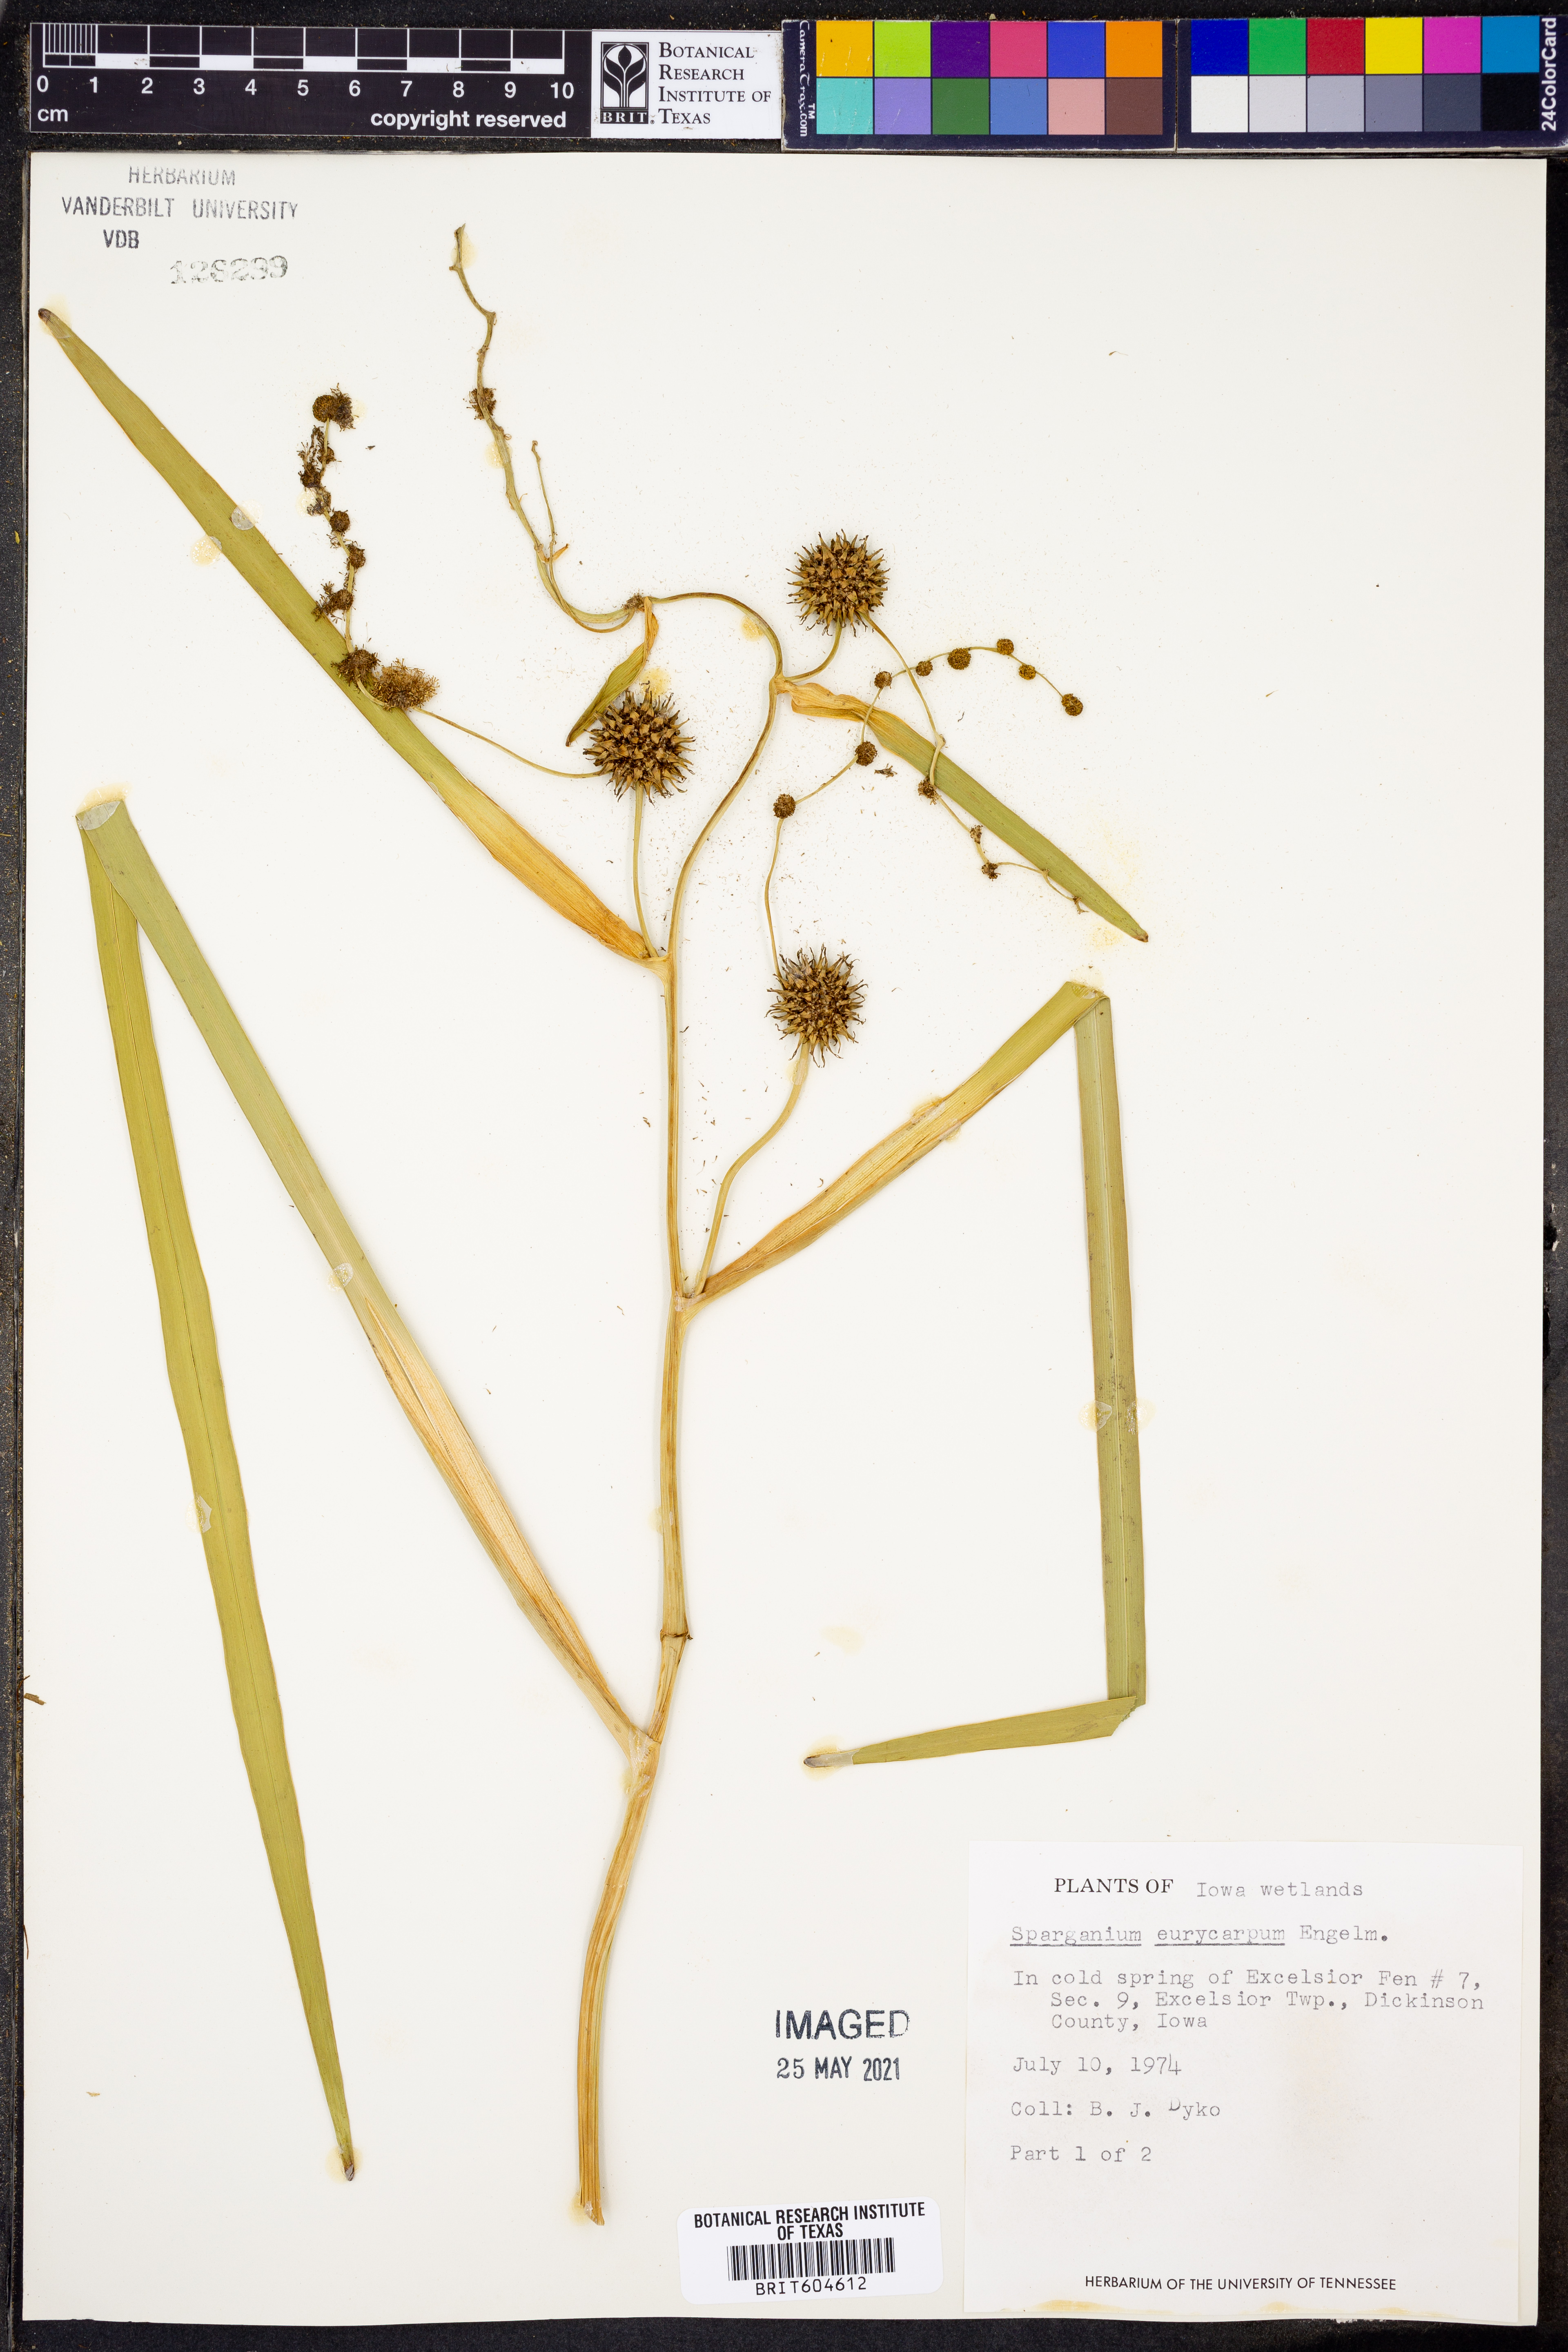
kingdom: Plantae
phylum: Tracheophyta
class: Liliopsida
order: Poales
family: Typhaceae
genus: Sparganium
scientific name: Sparganium eurycarpum
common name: Broad-fruited burreed
